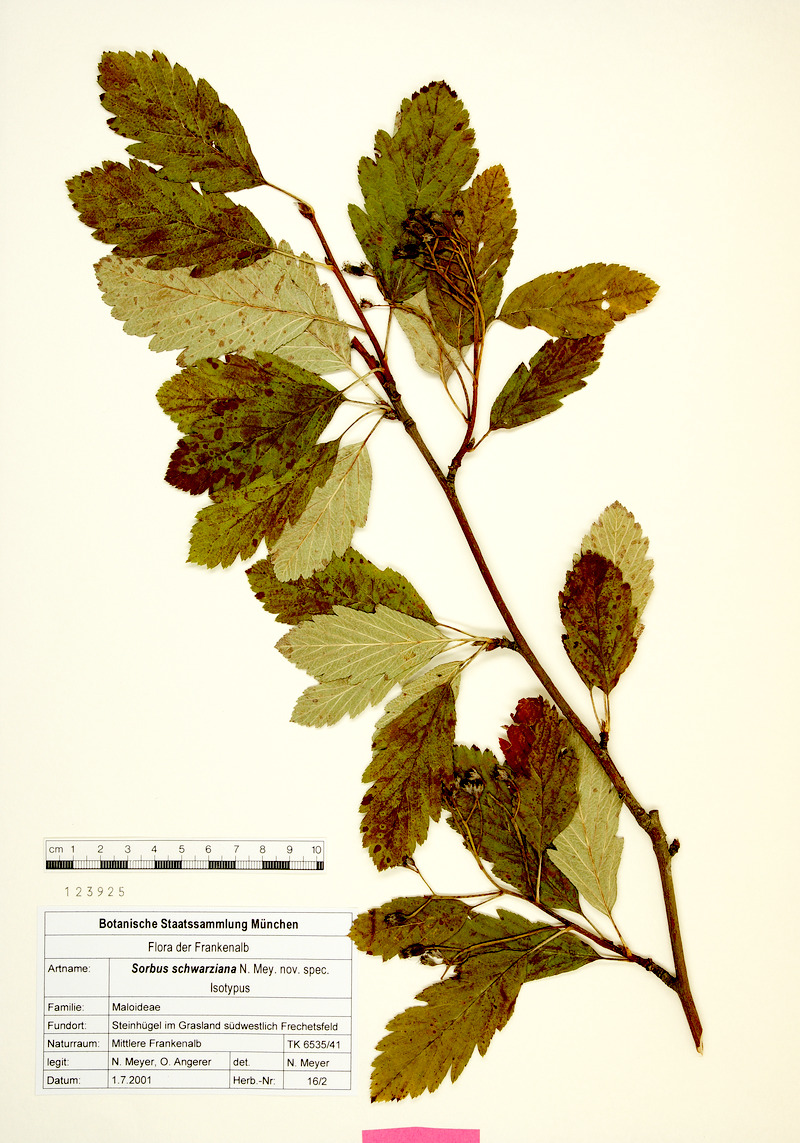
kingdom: Plantae
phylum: Tracheophyta
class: Magnoliopsida
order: Rosales
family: Rosaceae
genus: Hedlundia
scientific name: Hedlundia schwarziana
